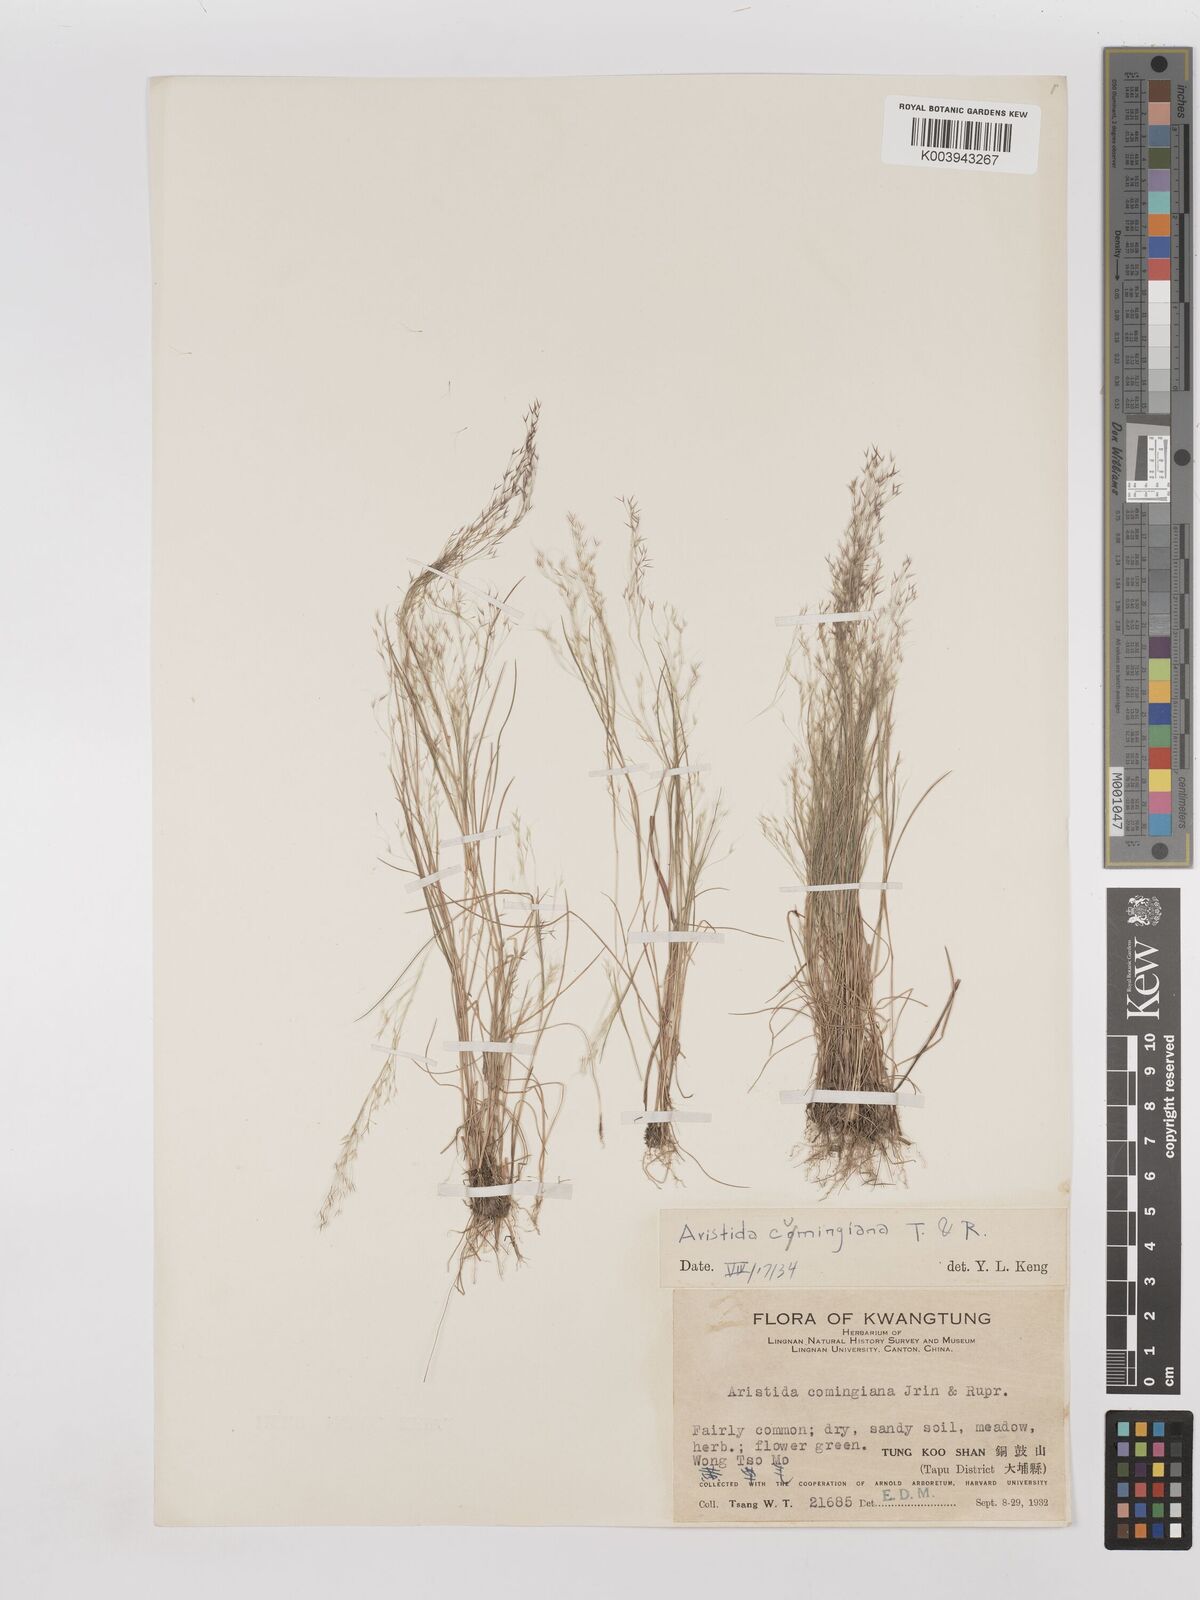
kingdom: Plantae
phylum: Tracheophyta
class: Liliopsida
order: Poales
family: Poaceae
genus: Aristida
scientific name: Aristida cumingiana
